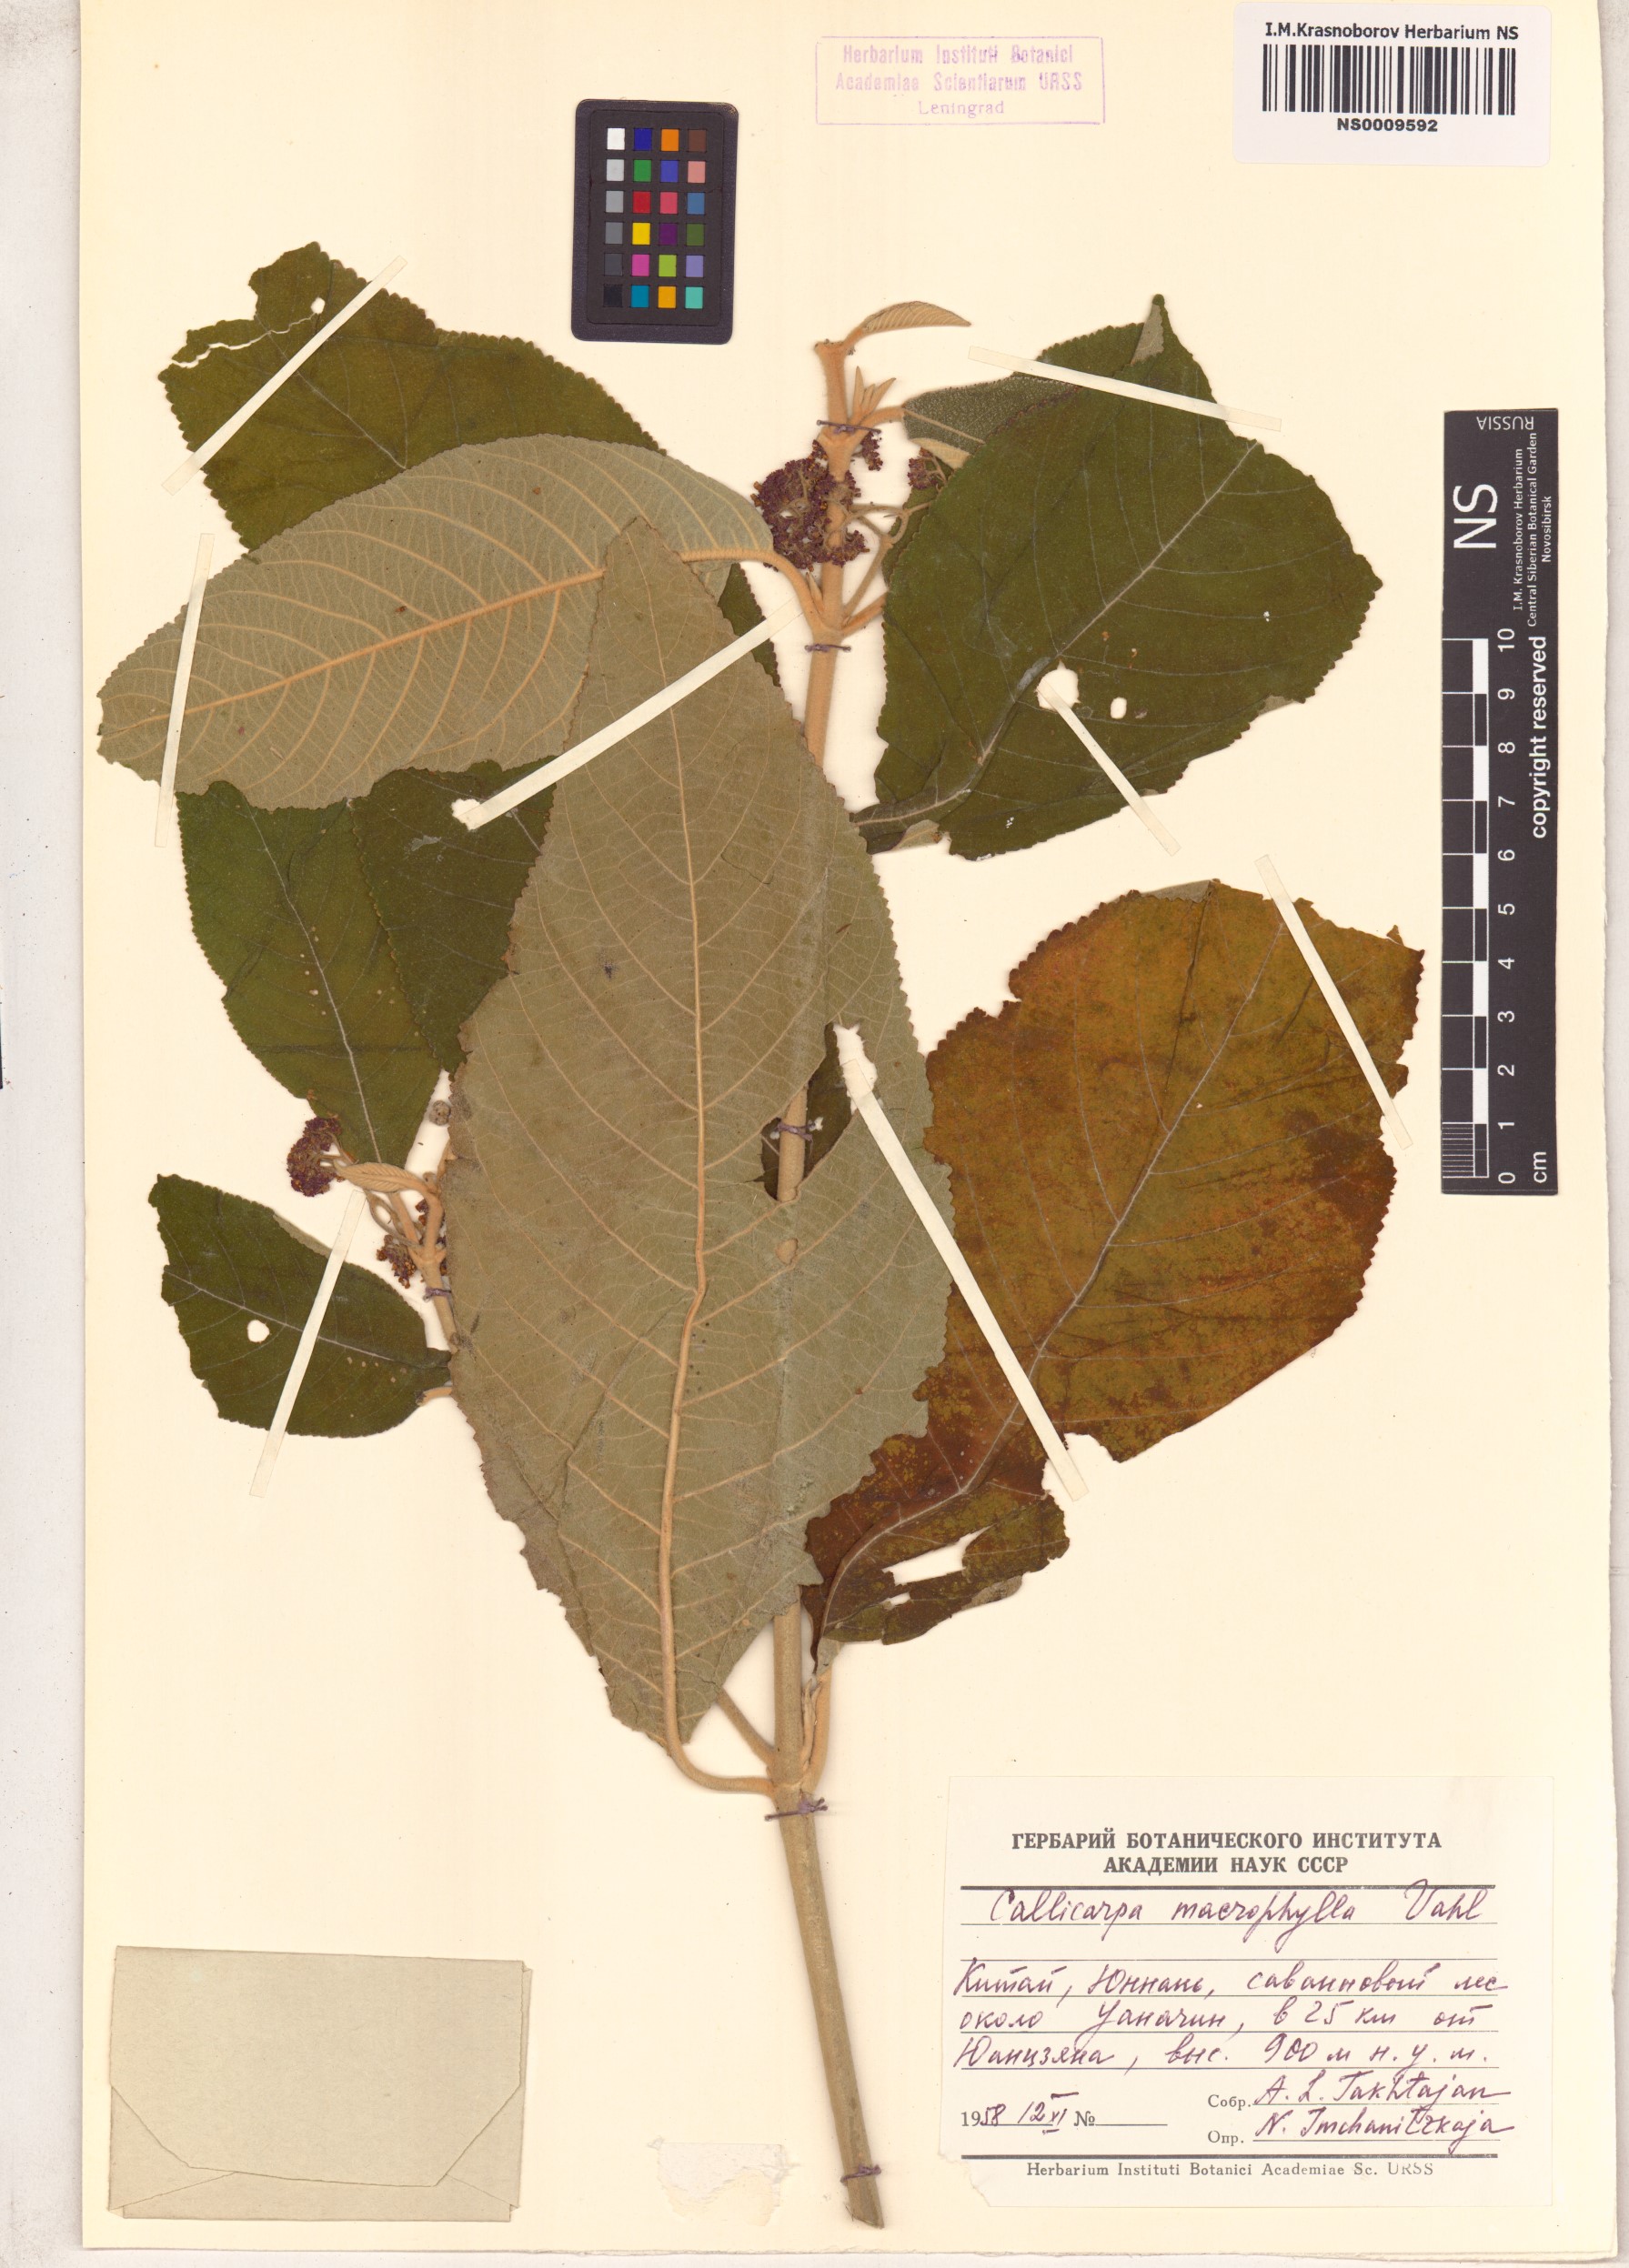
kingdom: Plantae
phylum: Tracheophyta
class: Magnoliopsida
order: Lamiales
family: Lamiaceae
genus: Callicarpa
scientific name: Callicarpa macrophylla
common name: Urn-fruit beauty-berry
